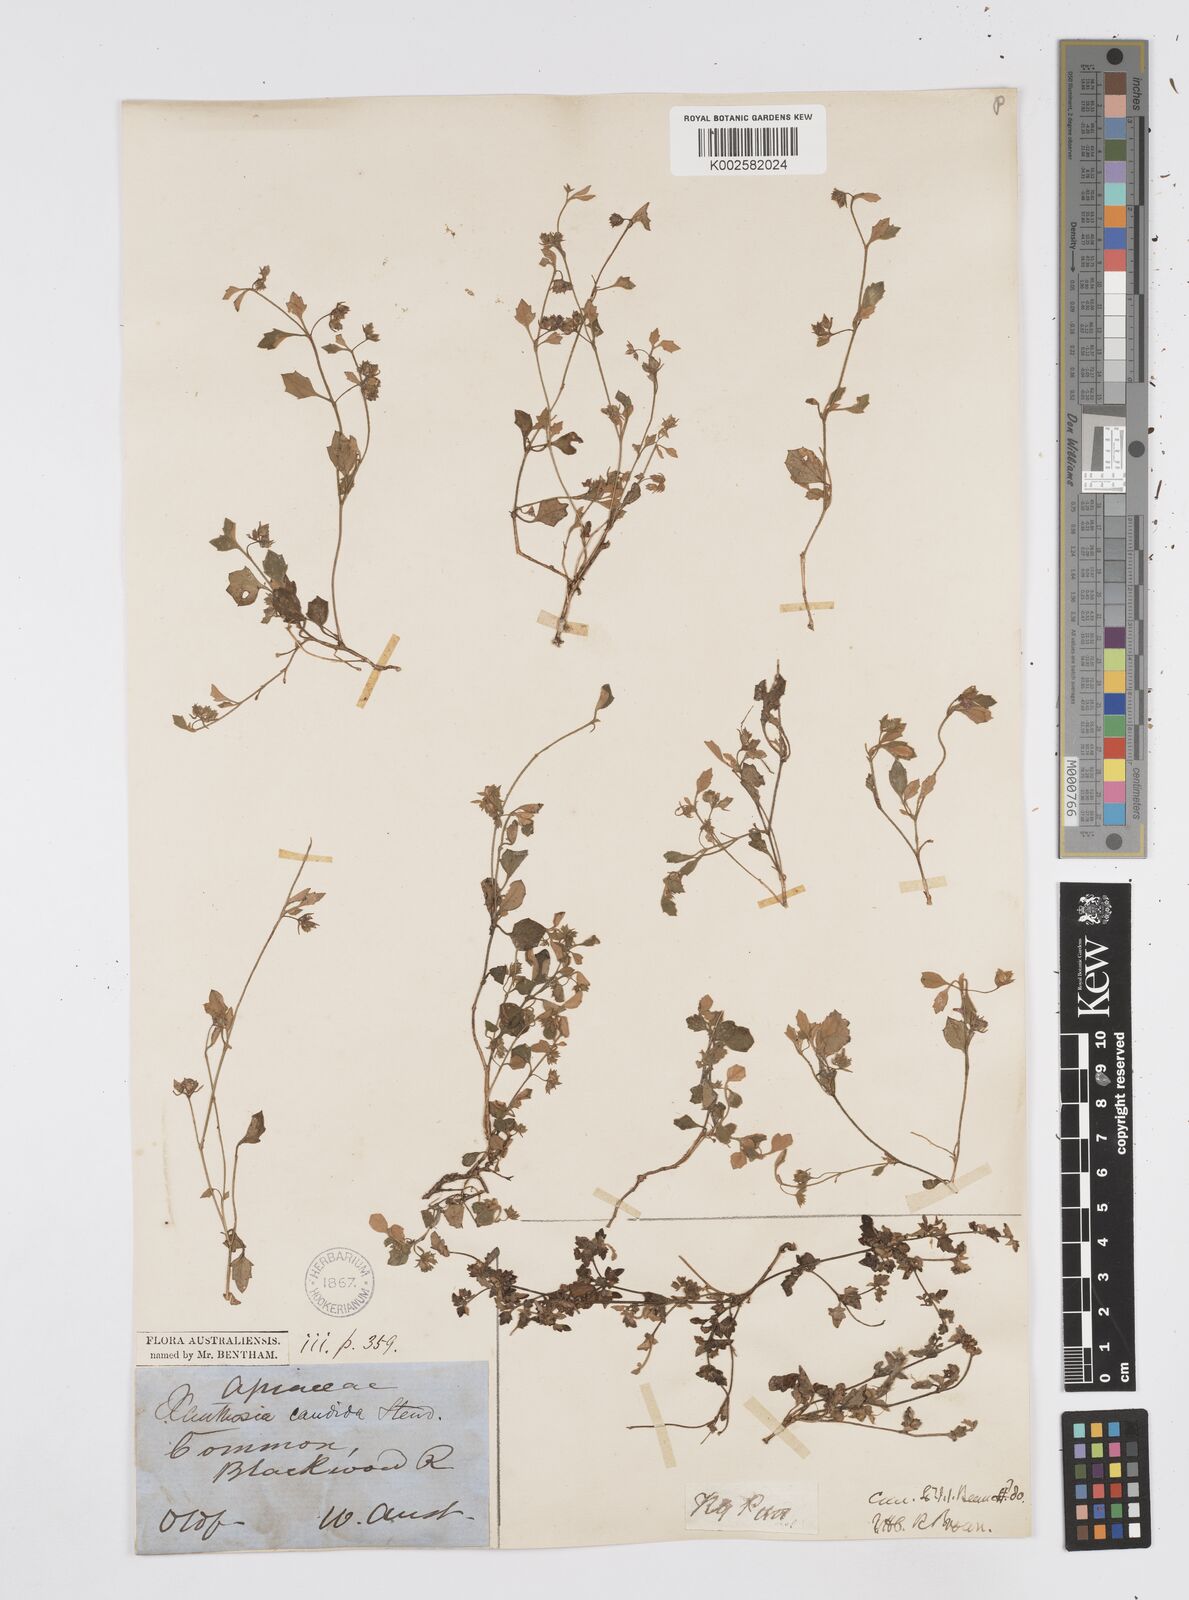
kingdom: Plantae
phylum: Tracheophyta
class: Magnoliopsida
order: Apiales
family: Apiaceae
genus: Xanthosia
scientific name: Xanthosia candida
